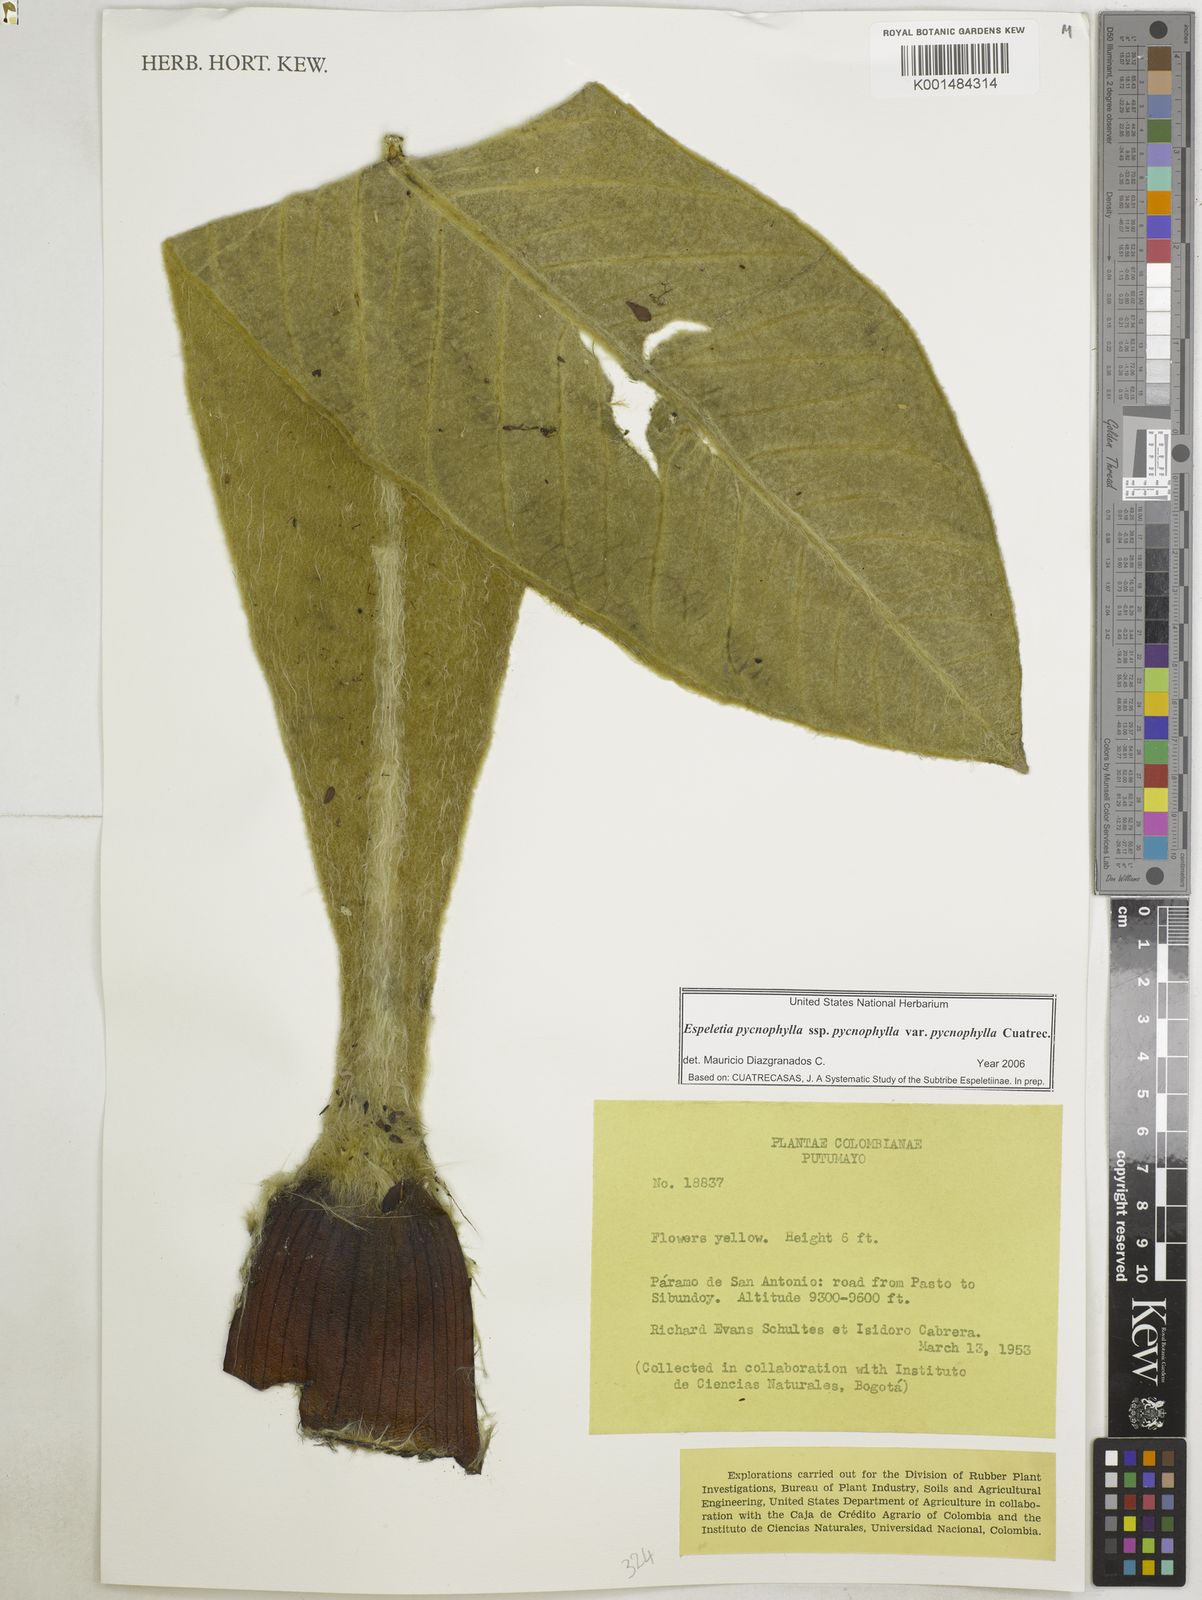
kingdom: Plantae
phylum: Tracheophyta
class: Magnoliopsida
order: Asterales
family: Asteraceae
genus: Espeletia
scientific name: Espeletia pycnophylla
